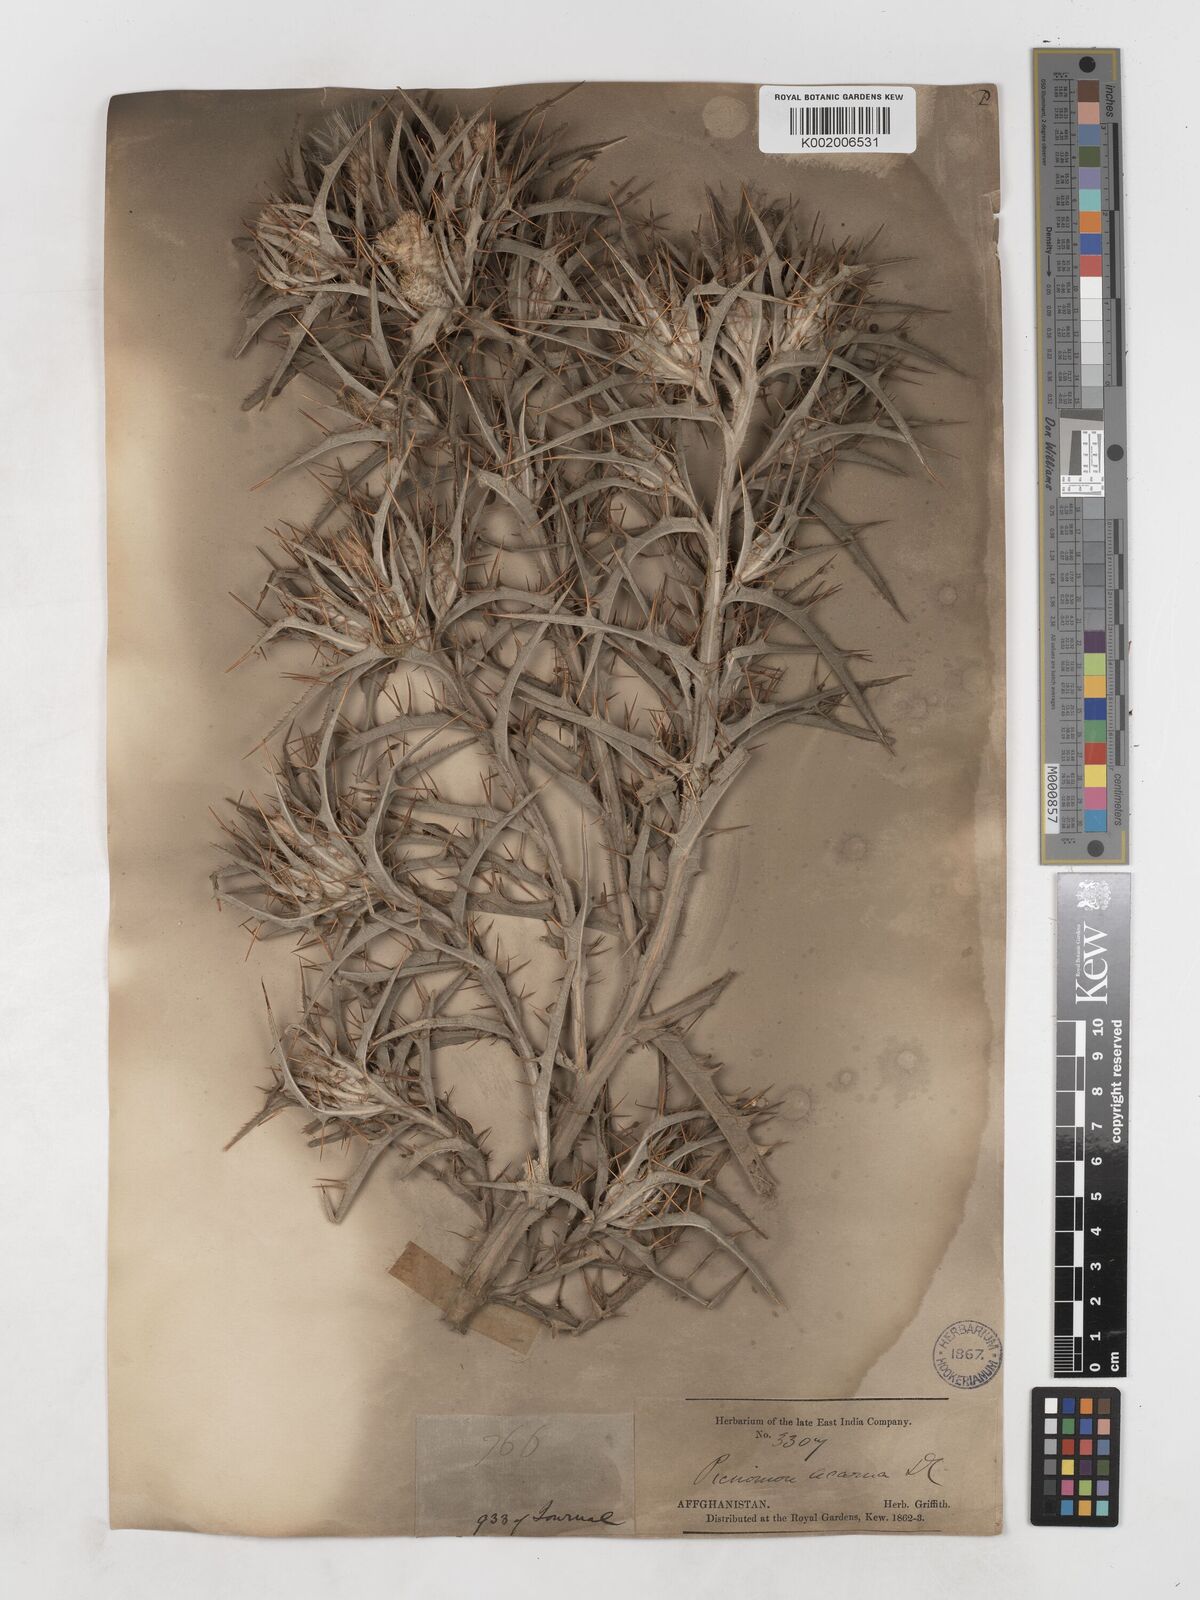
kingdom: Plantae
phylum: Tracheophyta
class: Magnoliopsida
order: Asterales
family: Asteraceae
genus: Picnomon
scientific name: Picnomon acarna
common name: Soldier thistle
